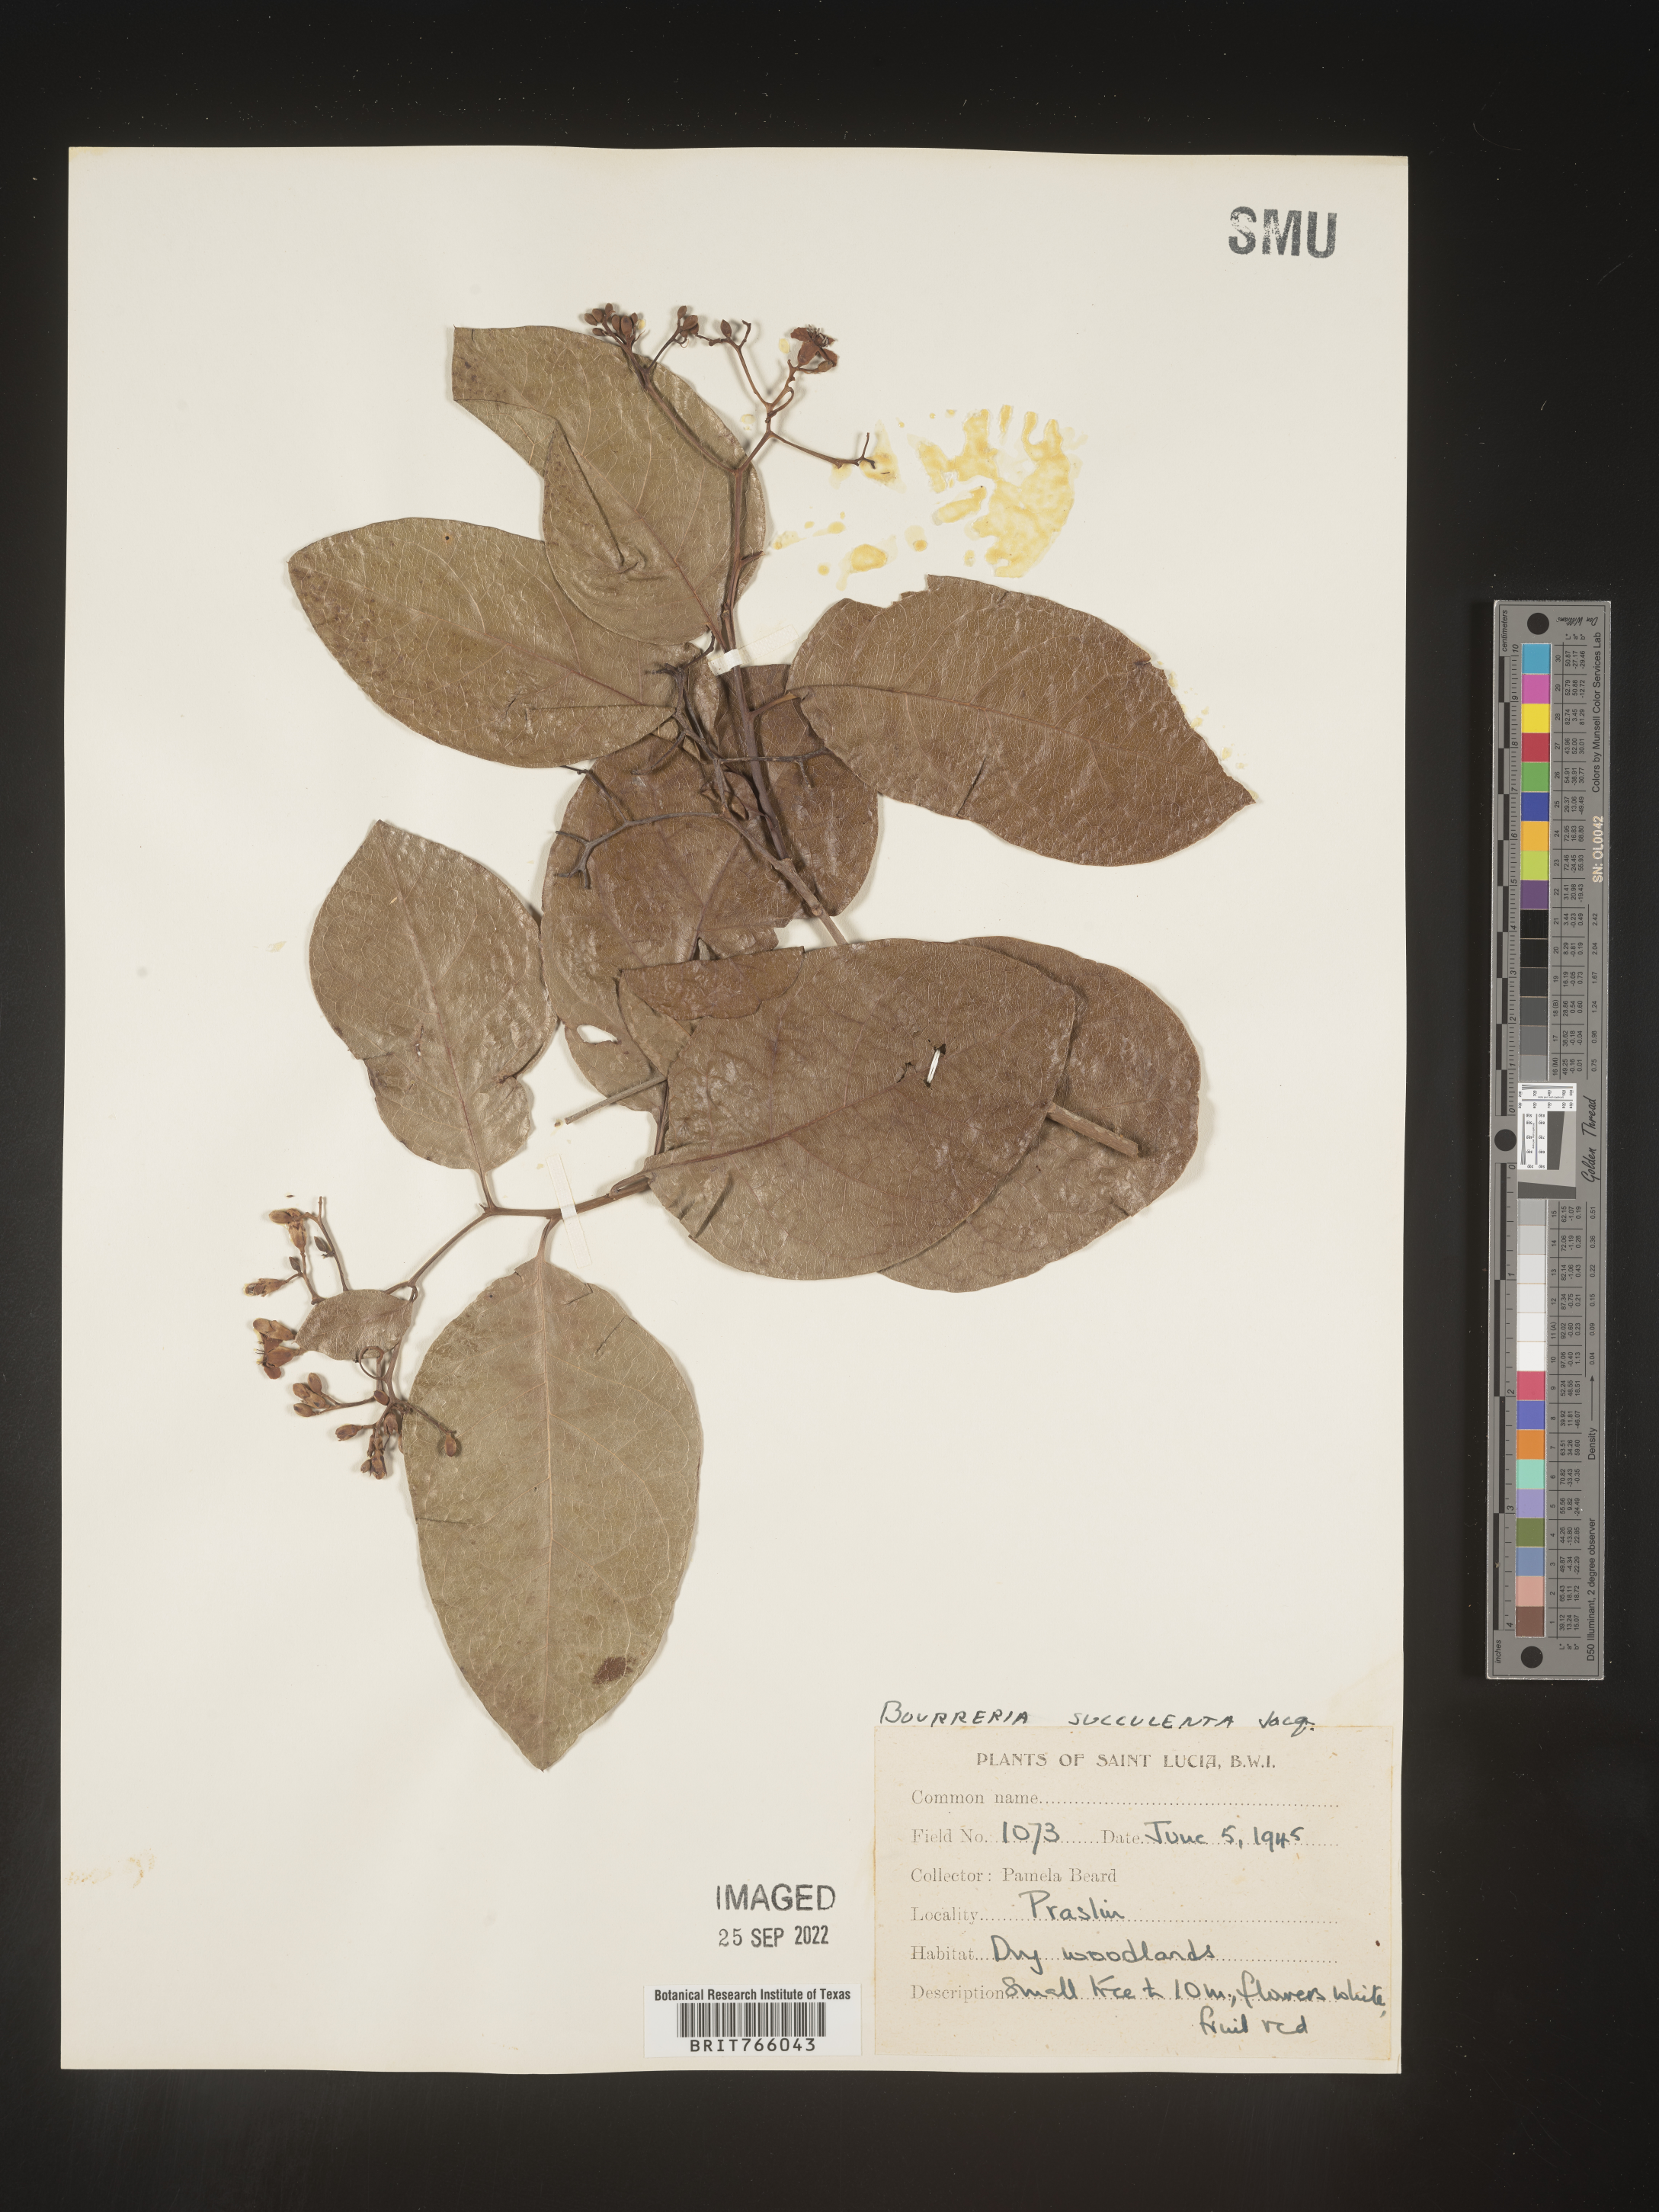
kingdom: Plantae
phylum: Tracheophyta
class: Magnoliopsida
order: Boraginales
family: Ehretiaceae
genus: Bourreria
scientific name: Bourreria
